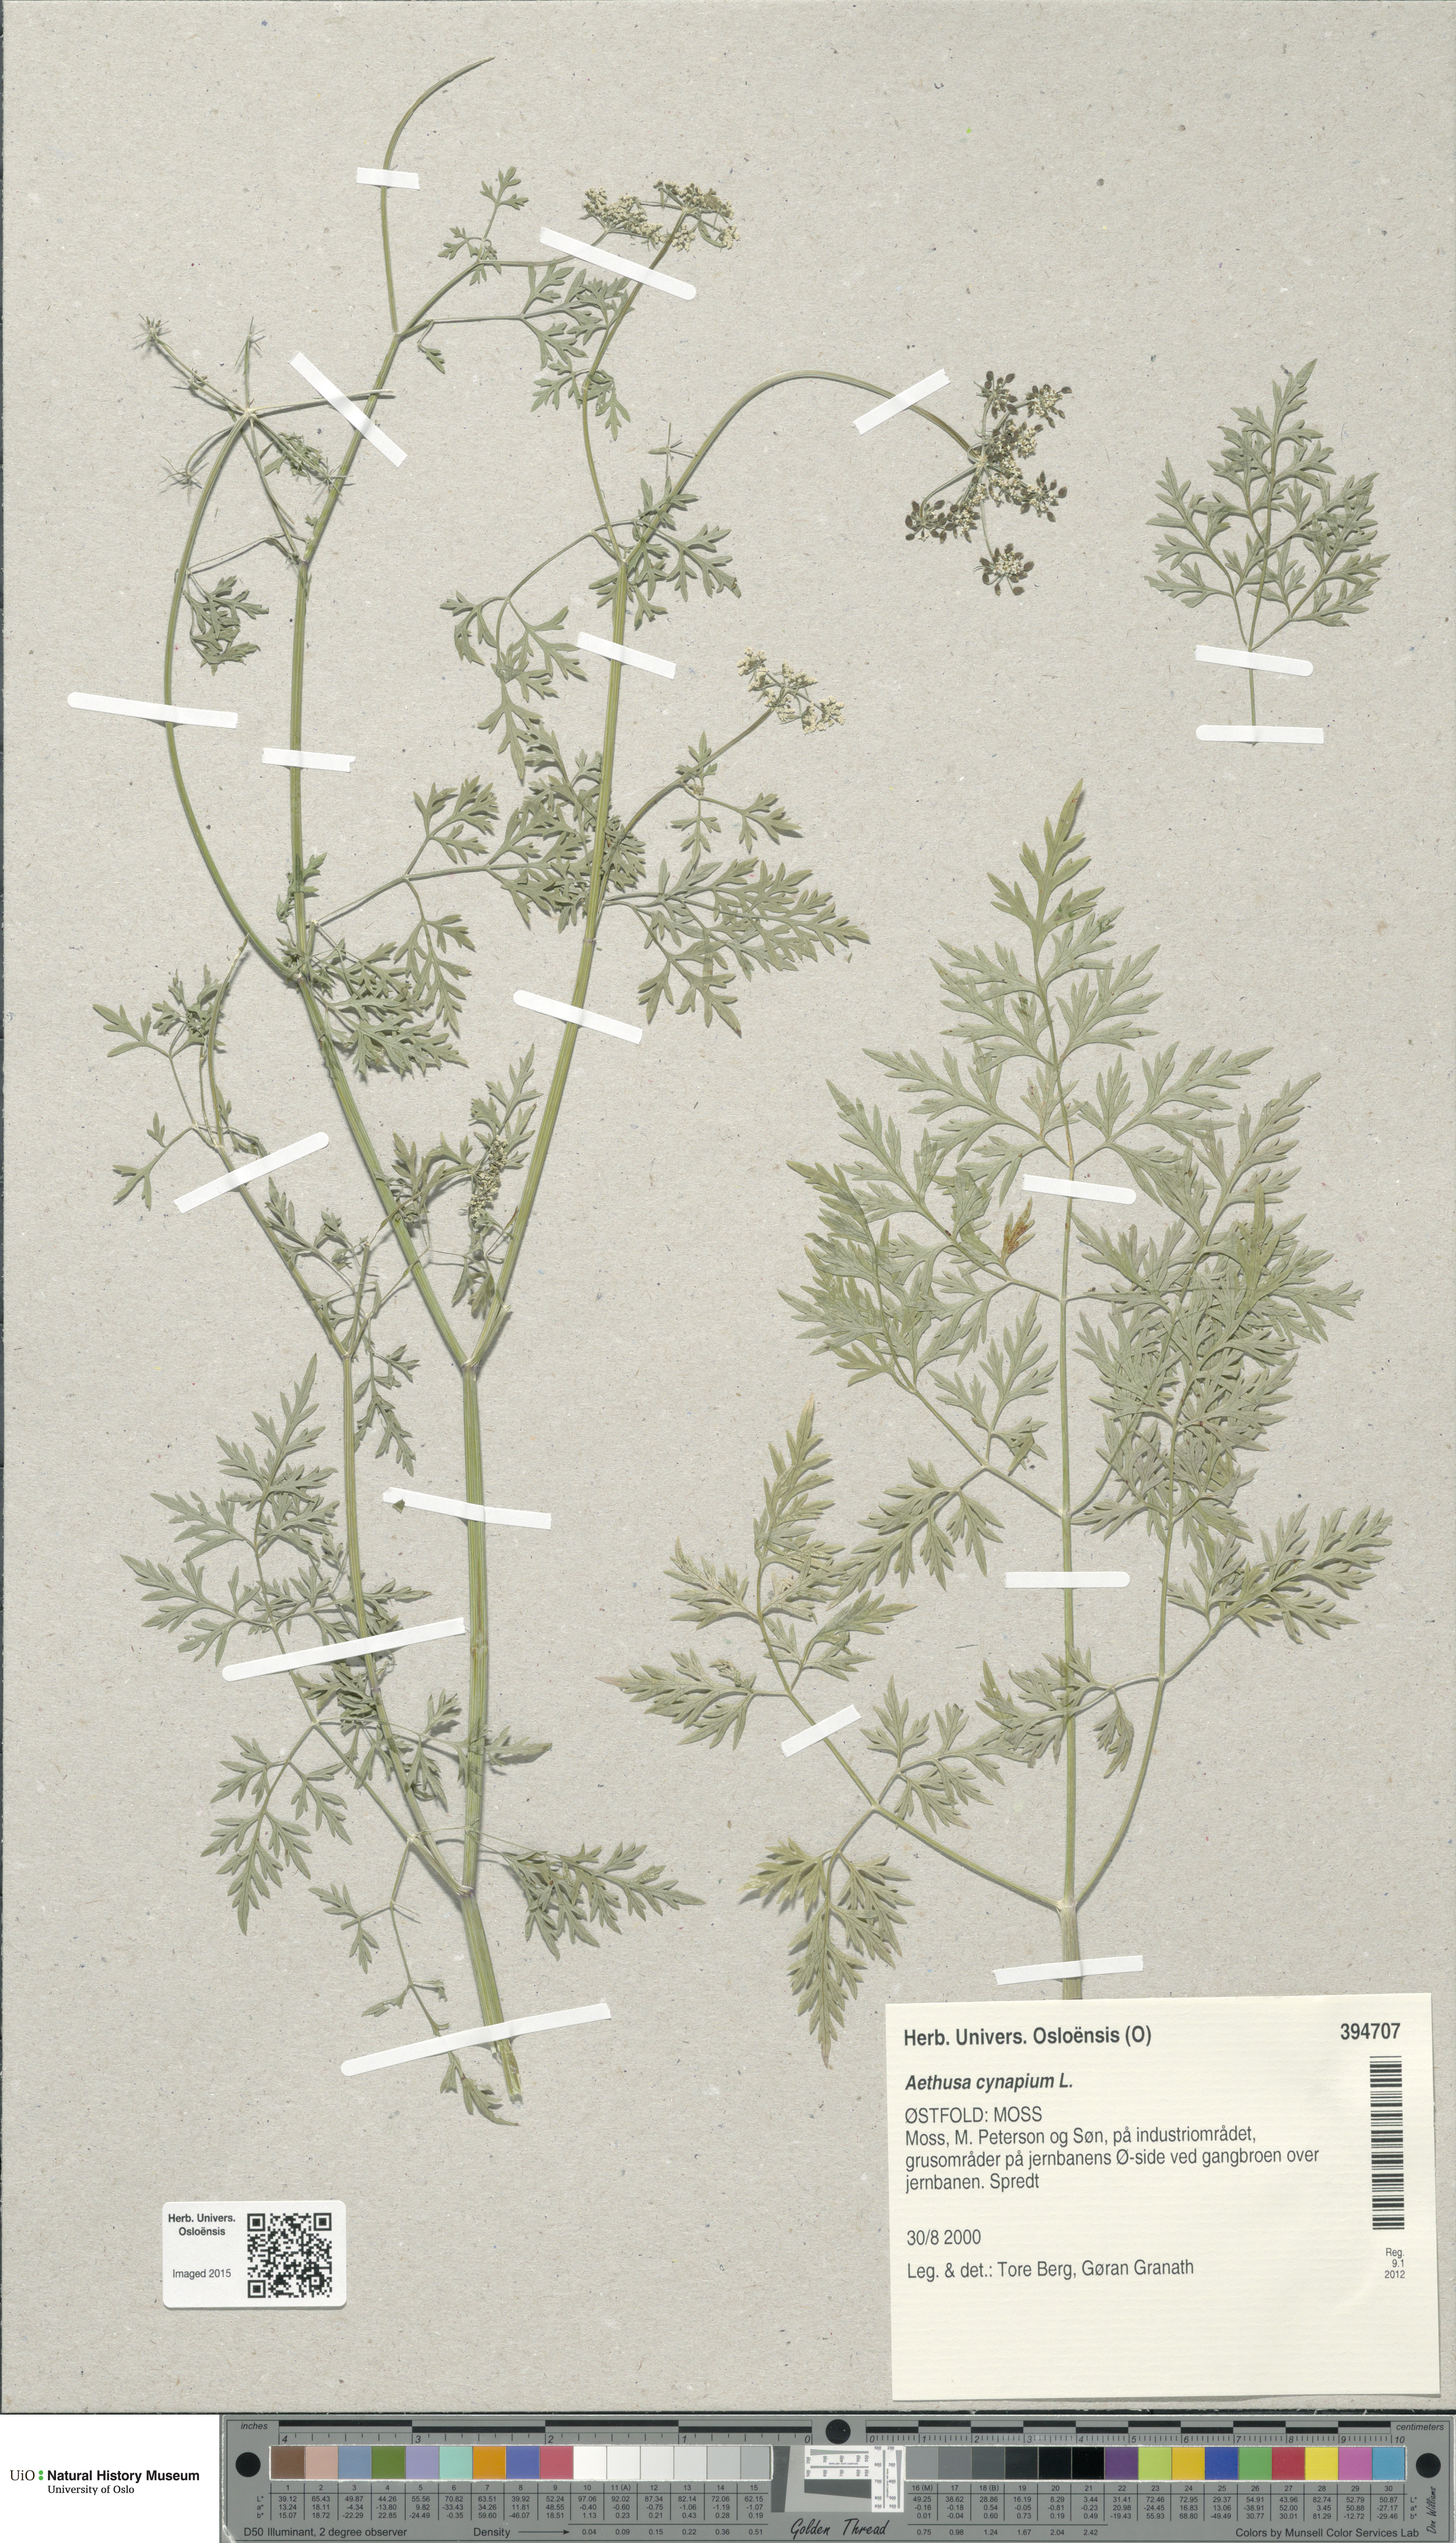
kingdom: Plantae
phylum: Tracheophyta
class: Magnoliopsida
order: Apiales
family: Apiaceae
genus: Aethusa
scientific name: Aethusa cynapium
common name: Fool's parsley
